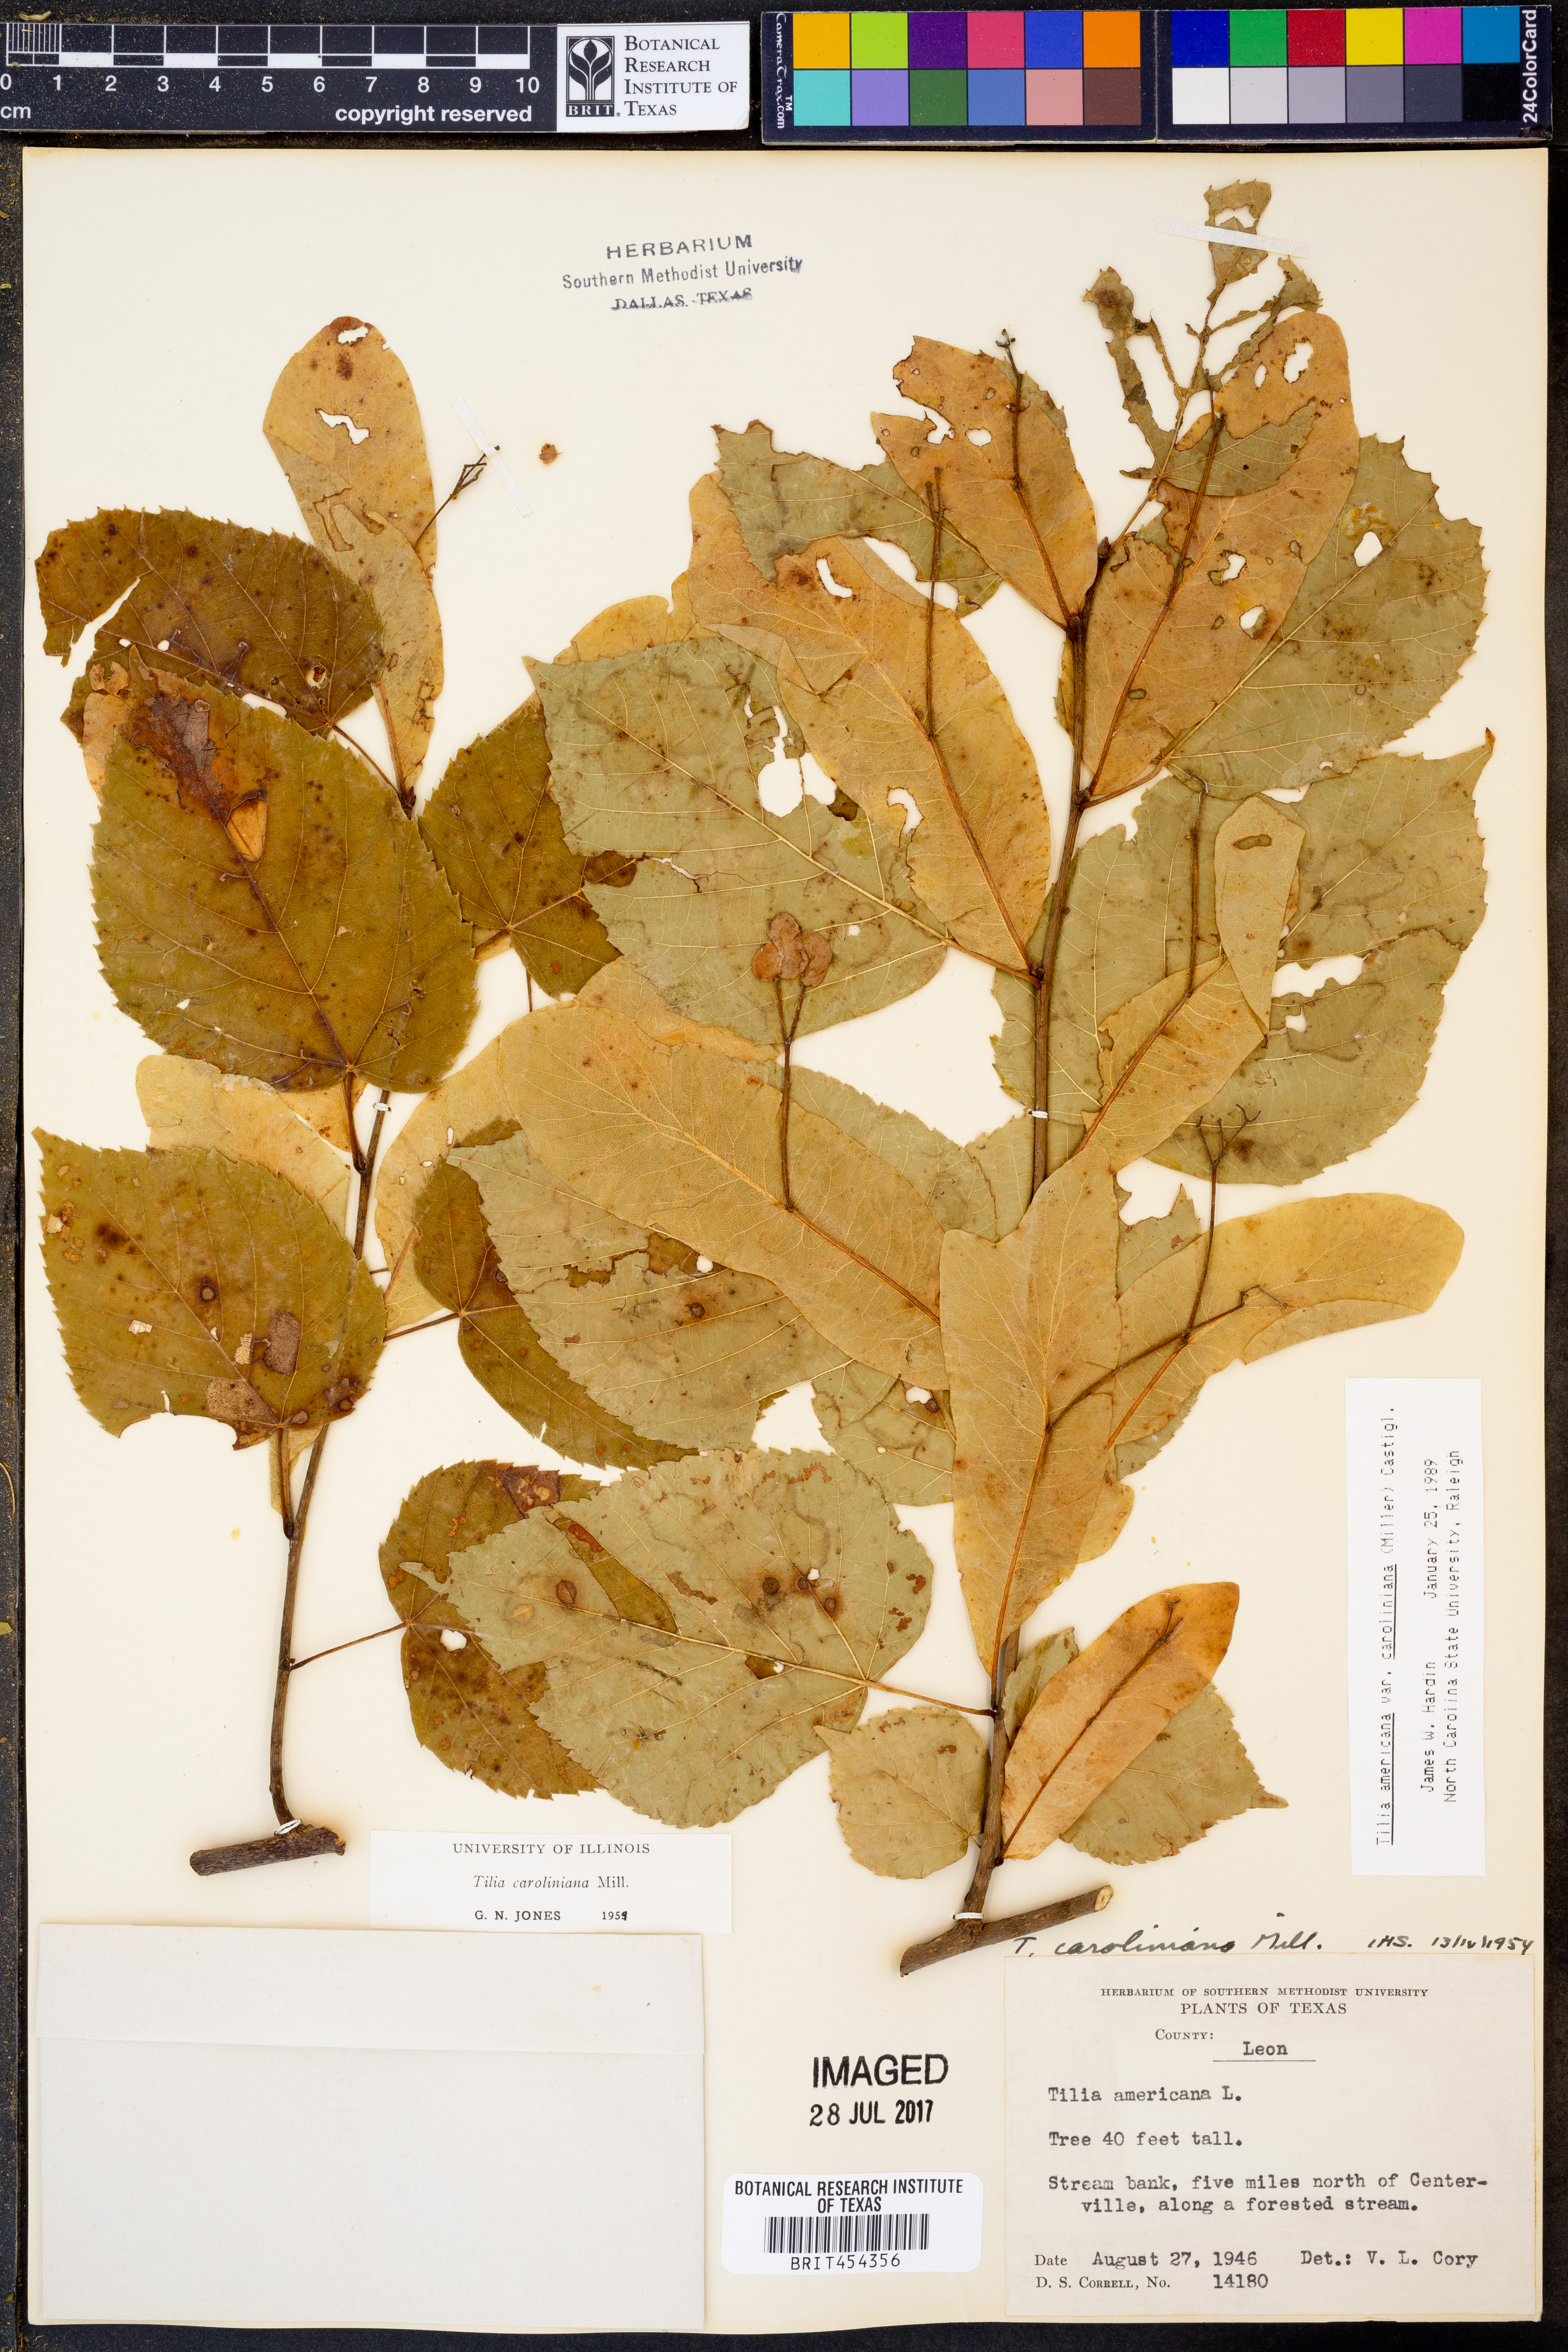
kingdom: Plantae
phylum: Tracheophyta
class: Magnoliopsida
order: Malvales
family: Malvaceae
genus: Tilia
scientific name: Tilia americana
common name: Basswood
